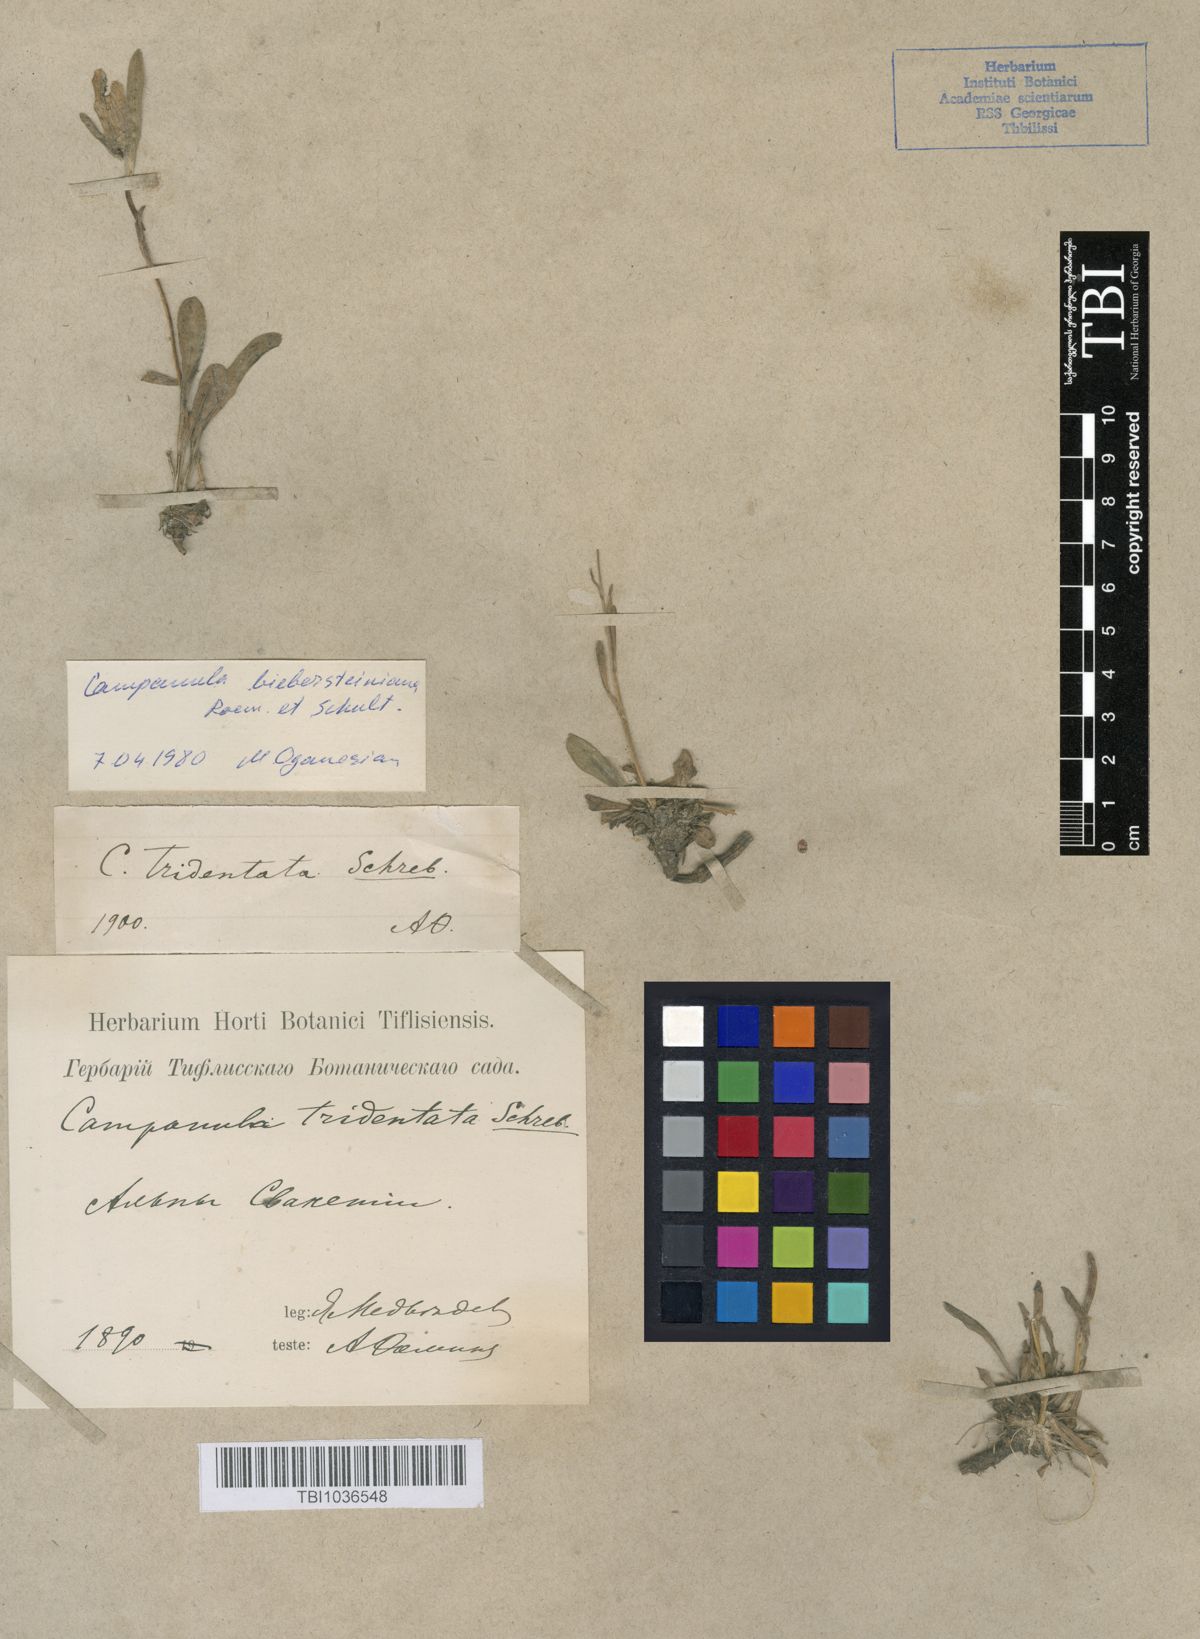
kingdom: Plantae
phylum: Tracheophyta
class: Magnoliopsida
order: Asterales
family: Campanulaceae
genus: Campanula
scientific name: Campanula tridentata
